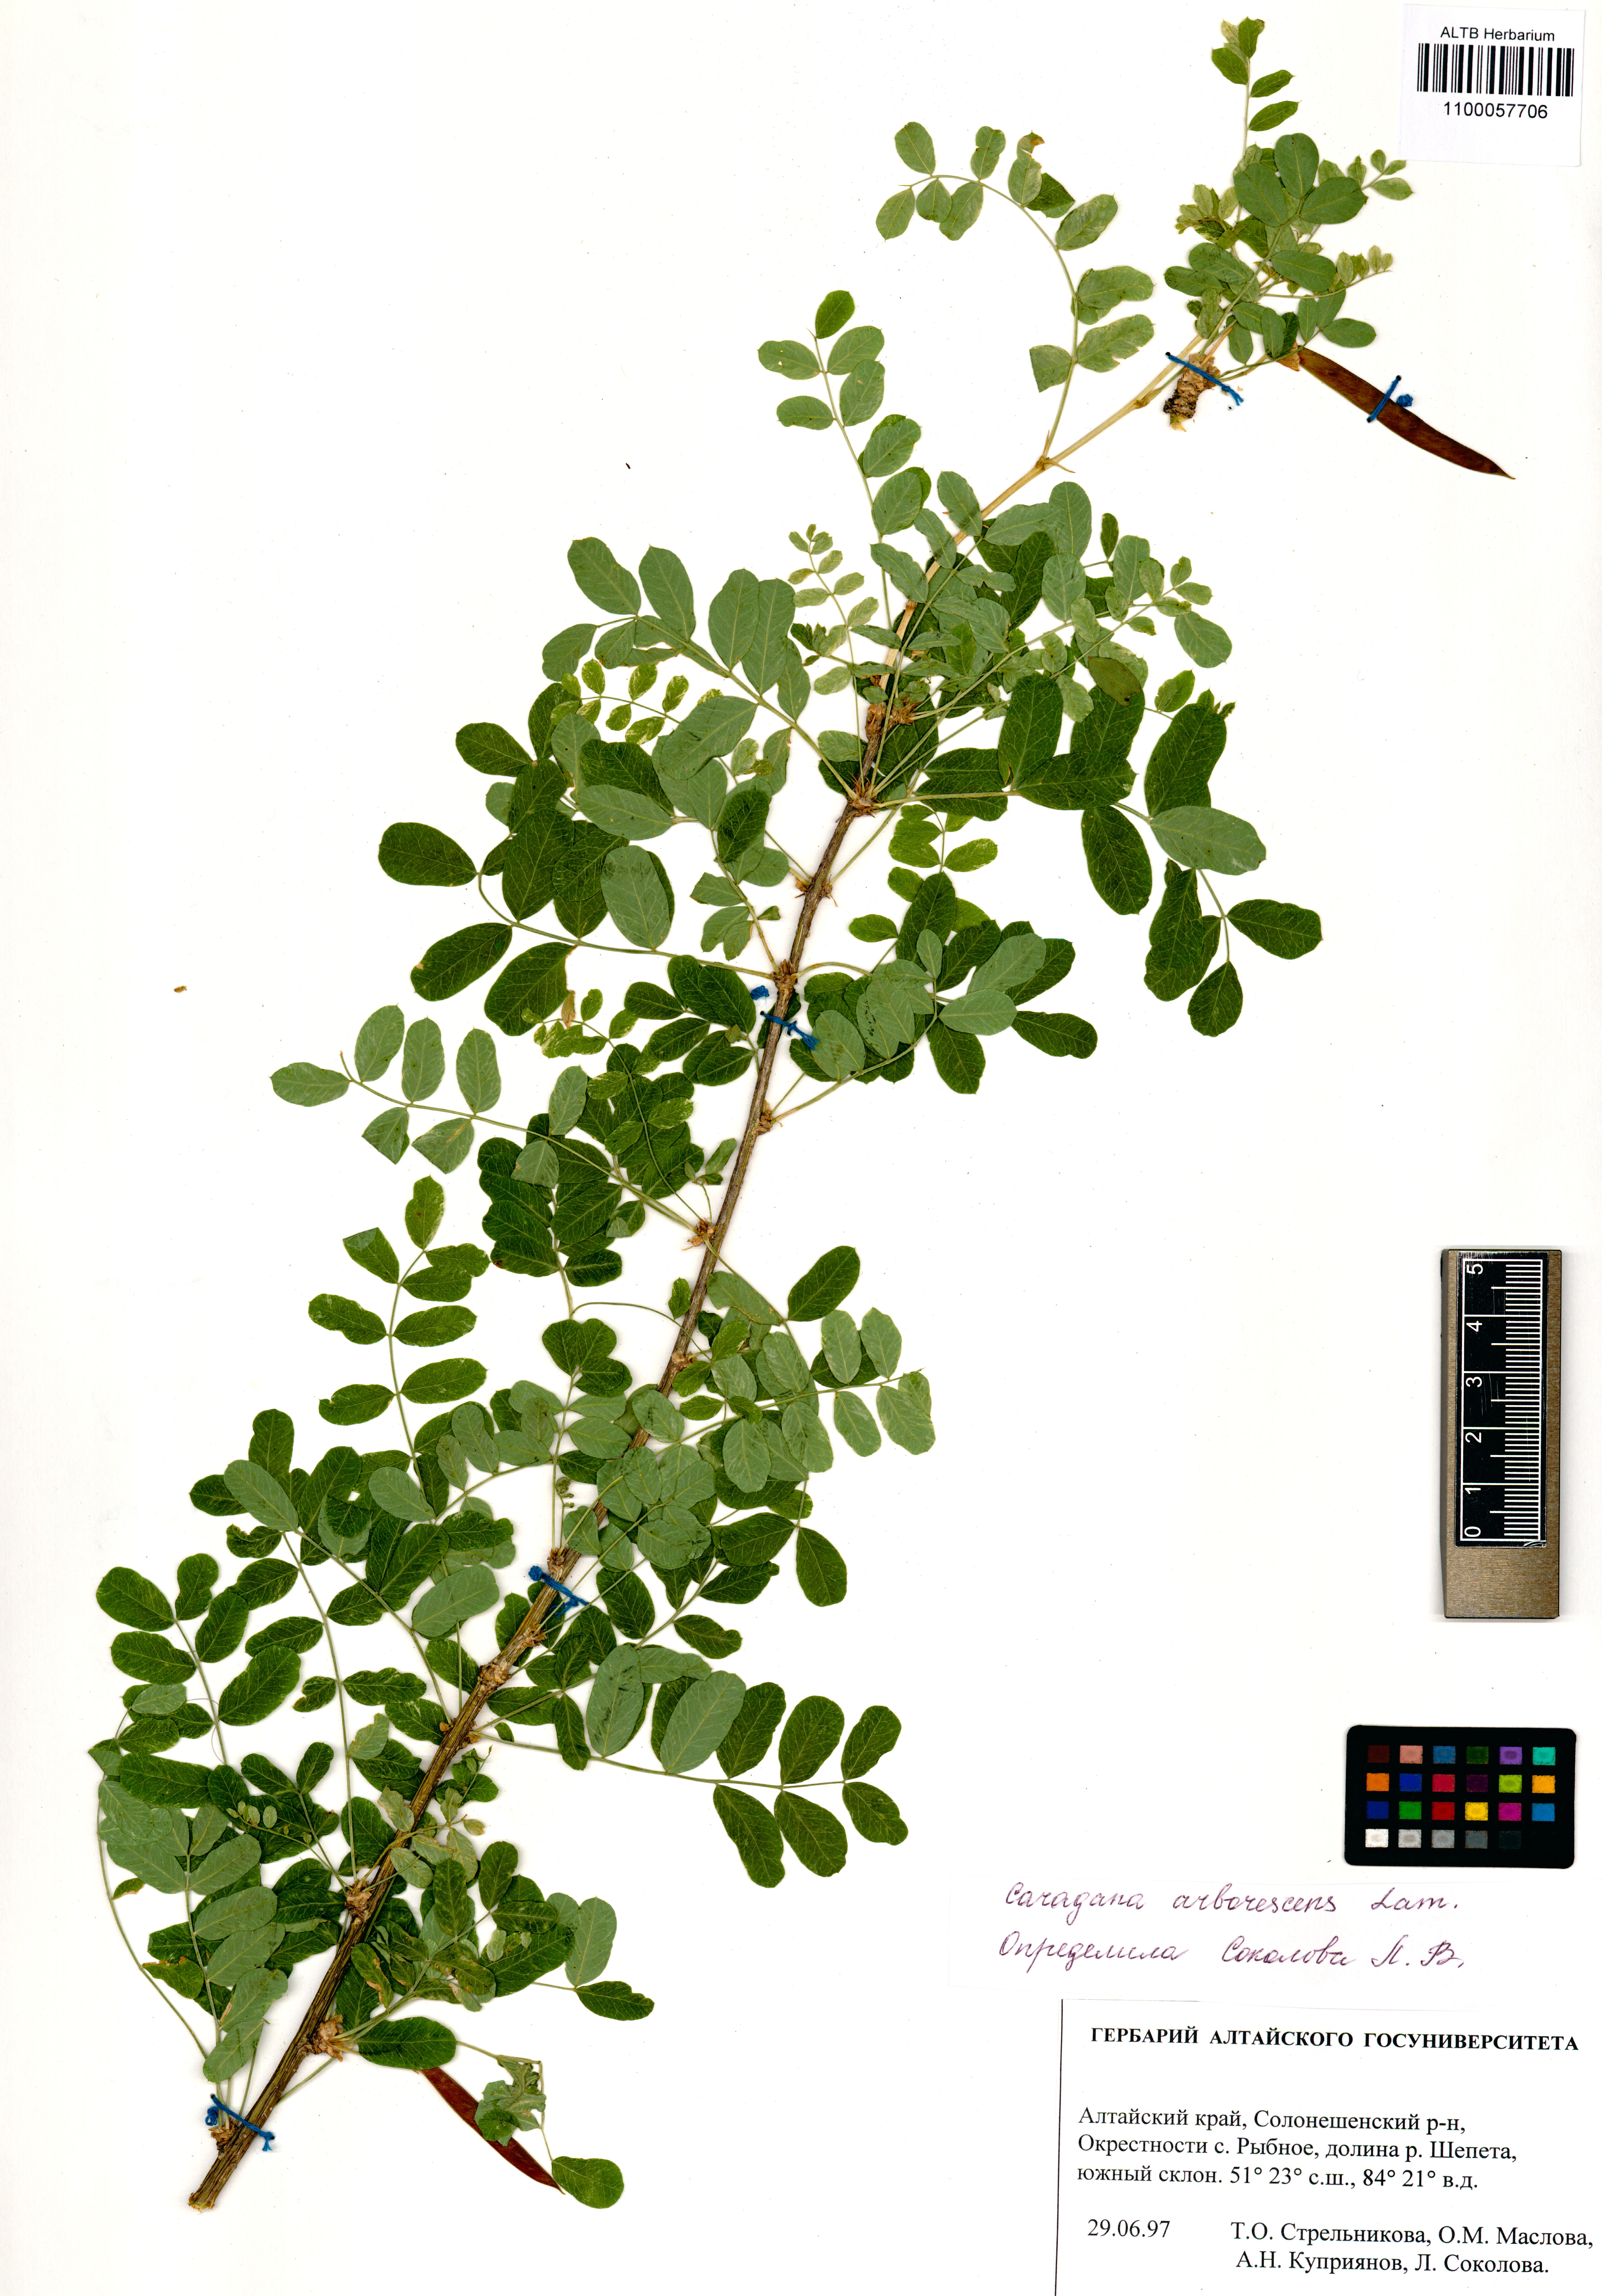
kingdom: Plantae
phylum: Tracheophyta
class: Magnoliopsida
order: Fabales
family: Fabaceae
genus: Caragana
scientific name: Caragana arborescens
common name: Siberian peashrub
